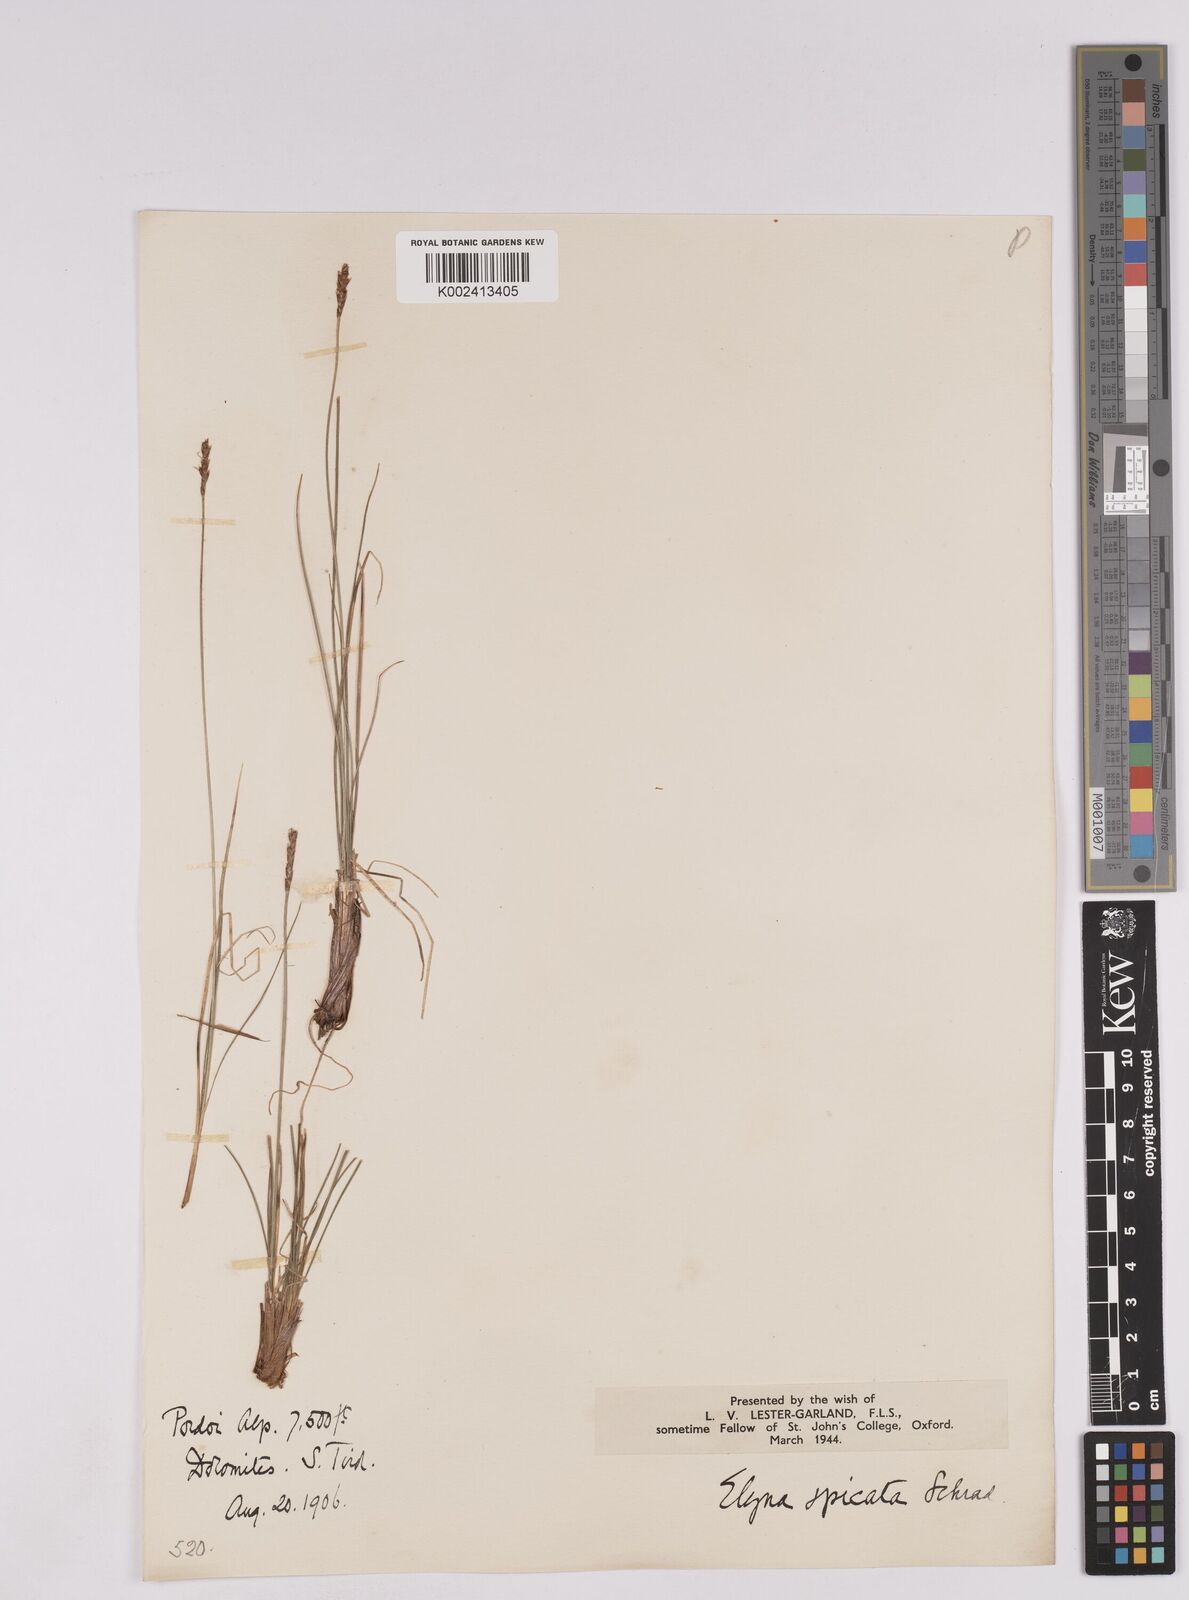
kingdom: Plantae
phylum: Tracheophyta
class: Liliopsida
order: Poales
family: Cyperaceae
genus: Carex
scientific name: Carex myosuroides
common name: Bellard's bog sedge
